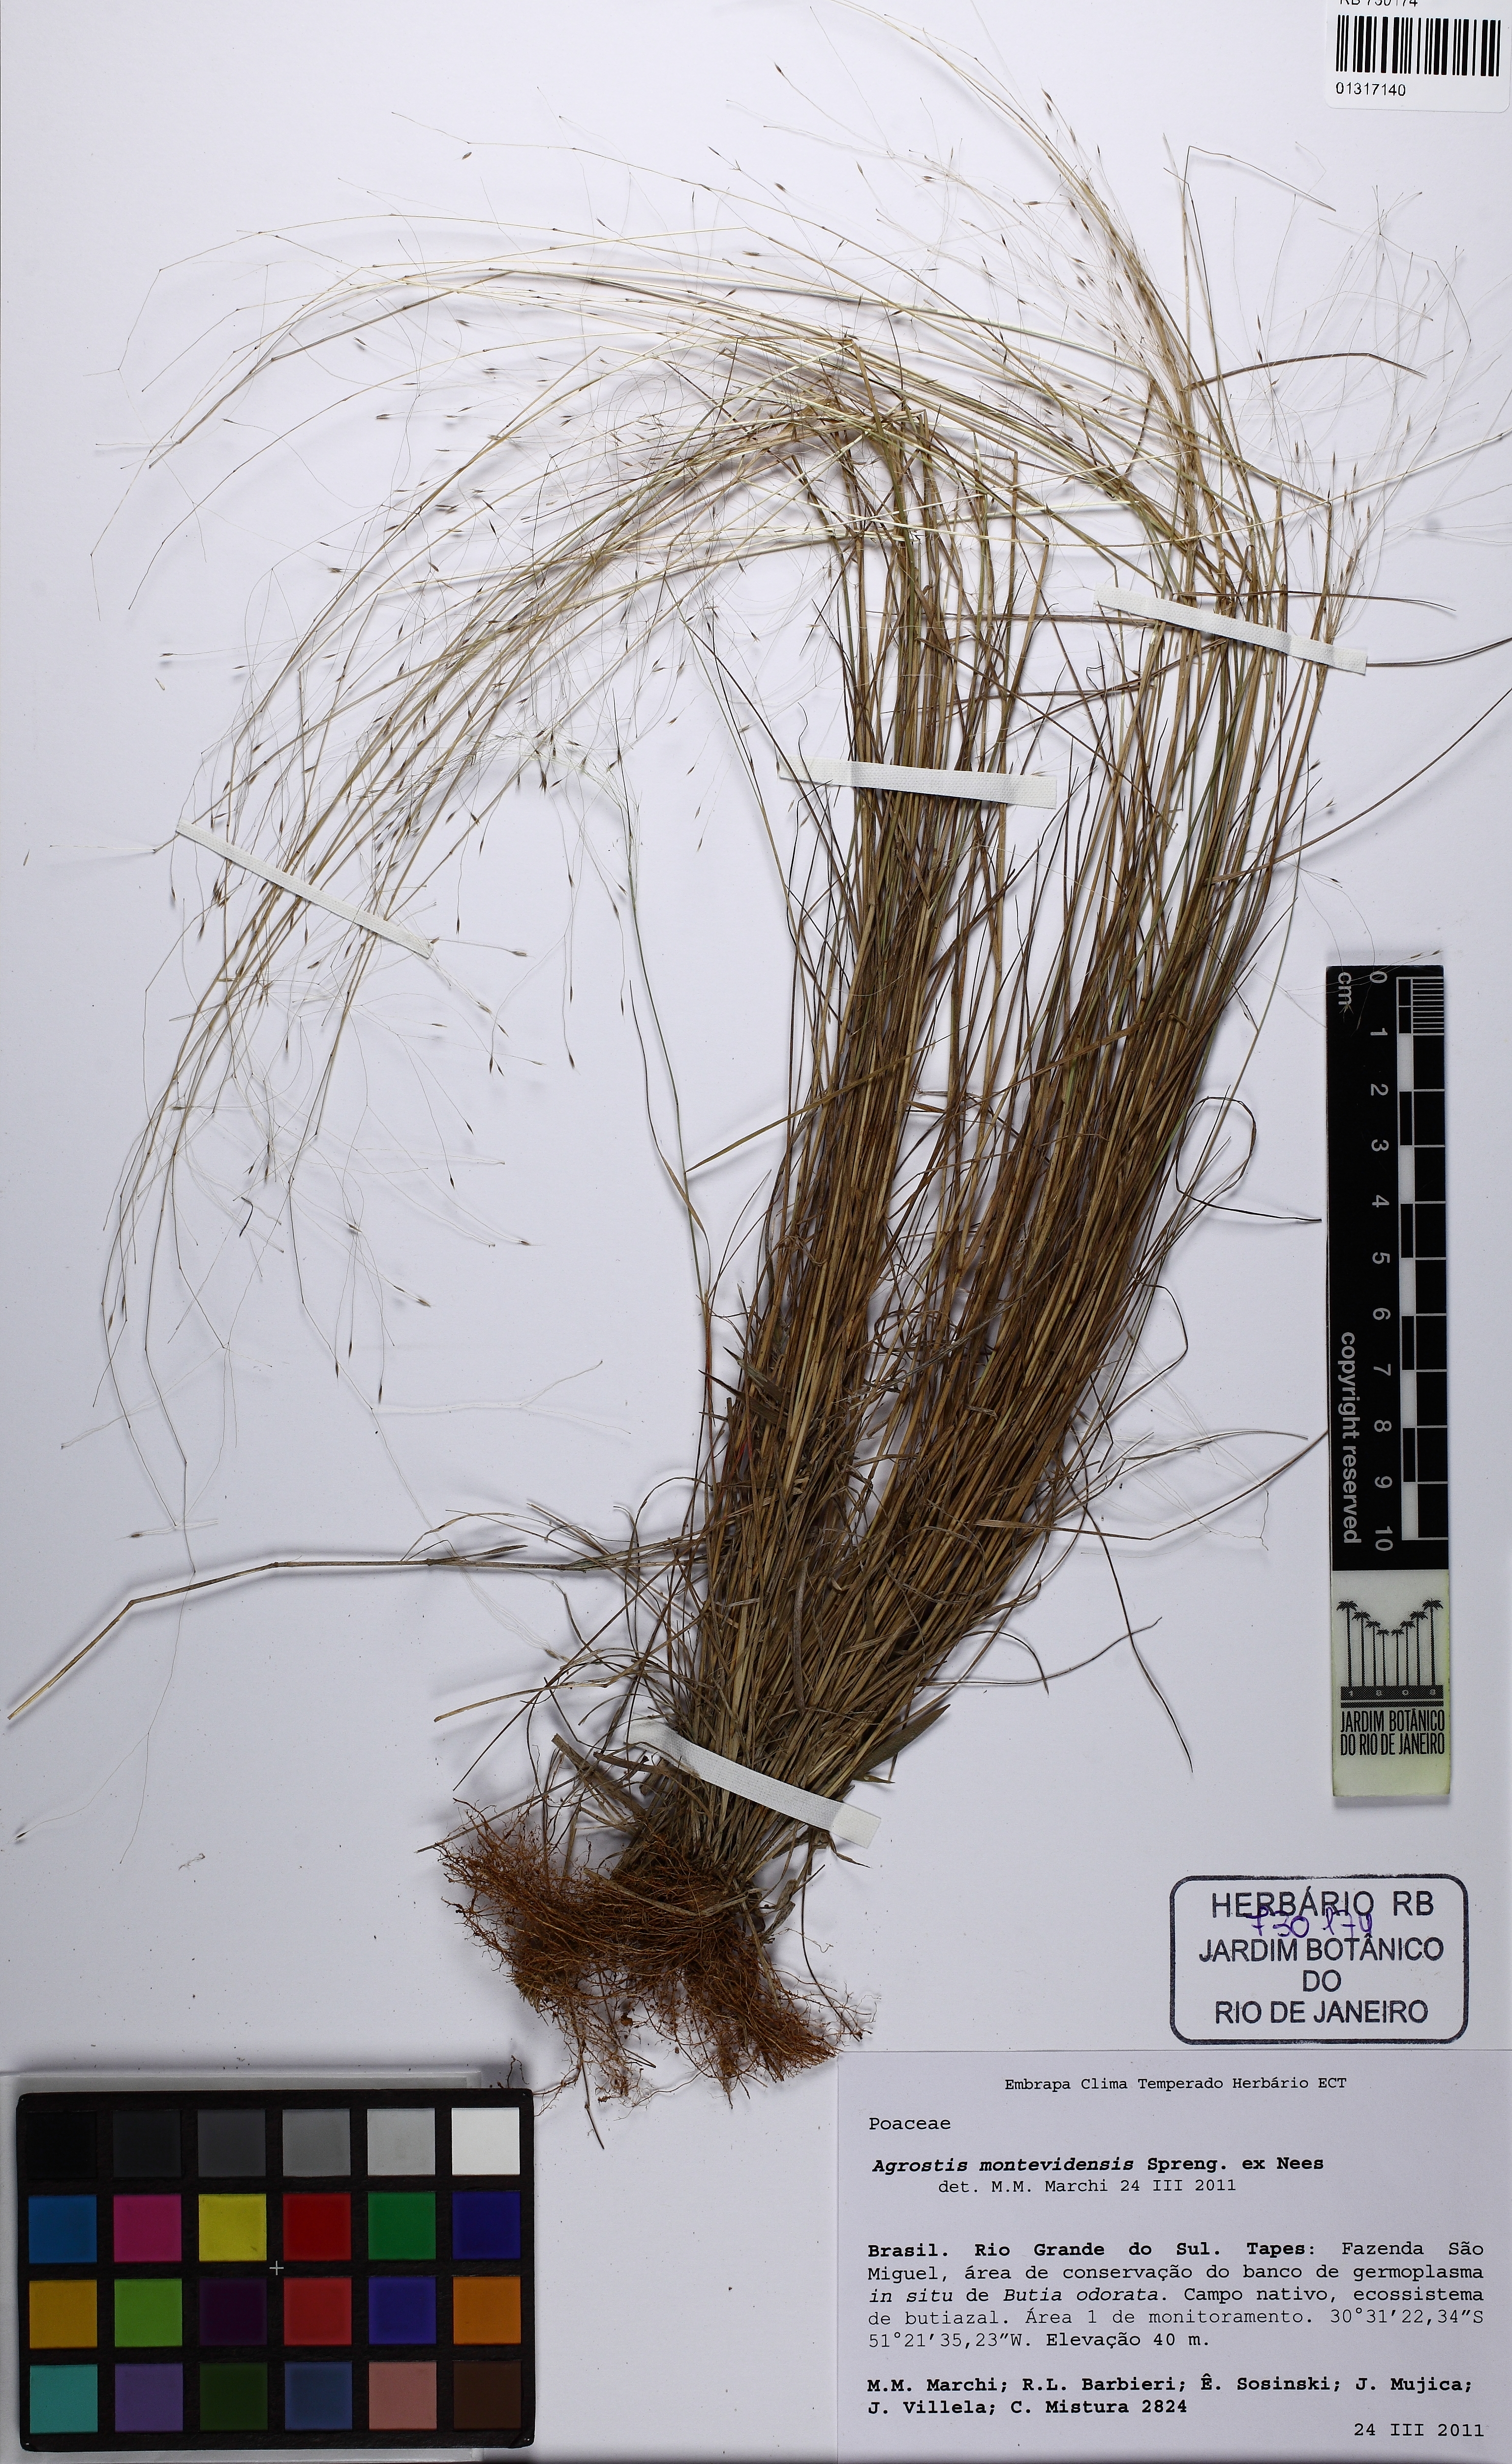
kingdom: Plantae
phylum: Tracheophyta
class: Liliopsida
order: Poales
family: Poaceae
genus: Agrostis
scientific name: Agrostis montevidensis
